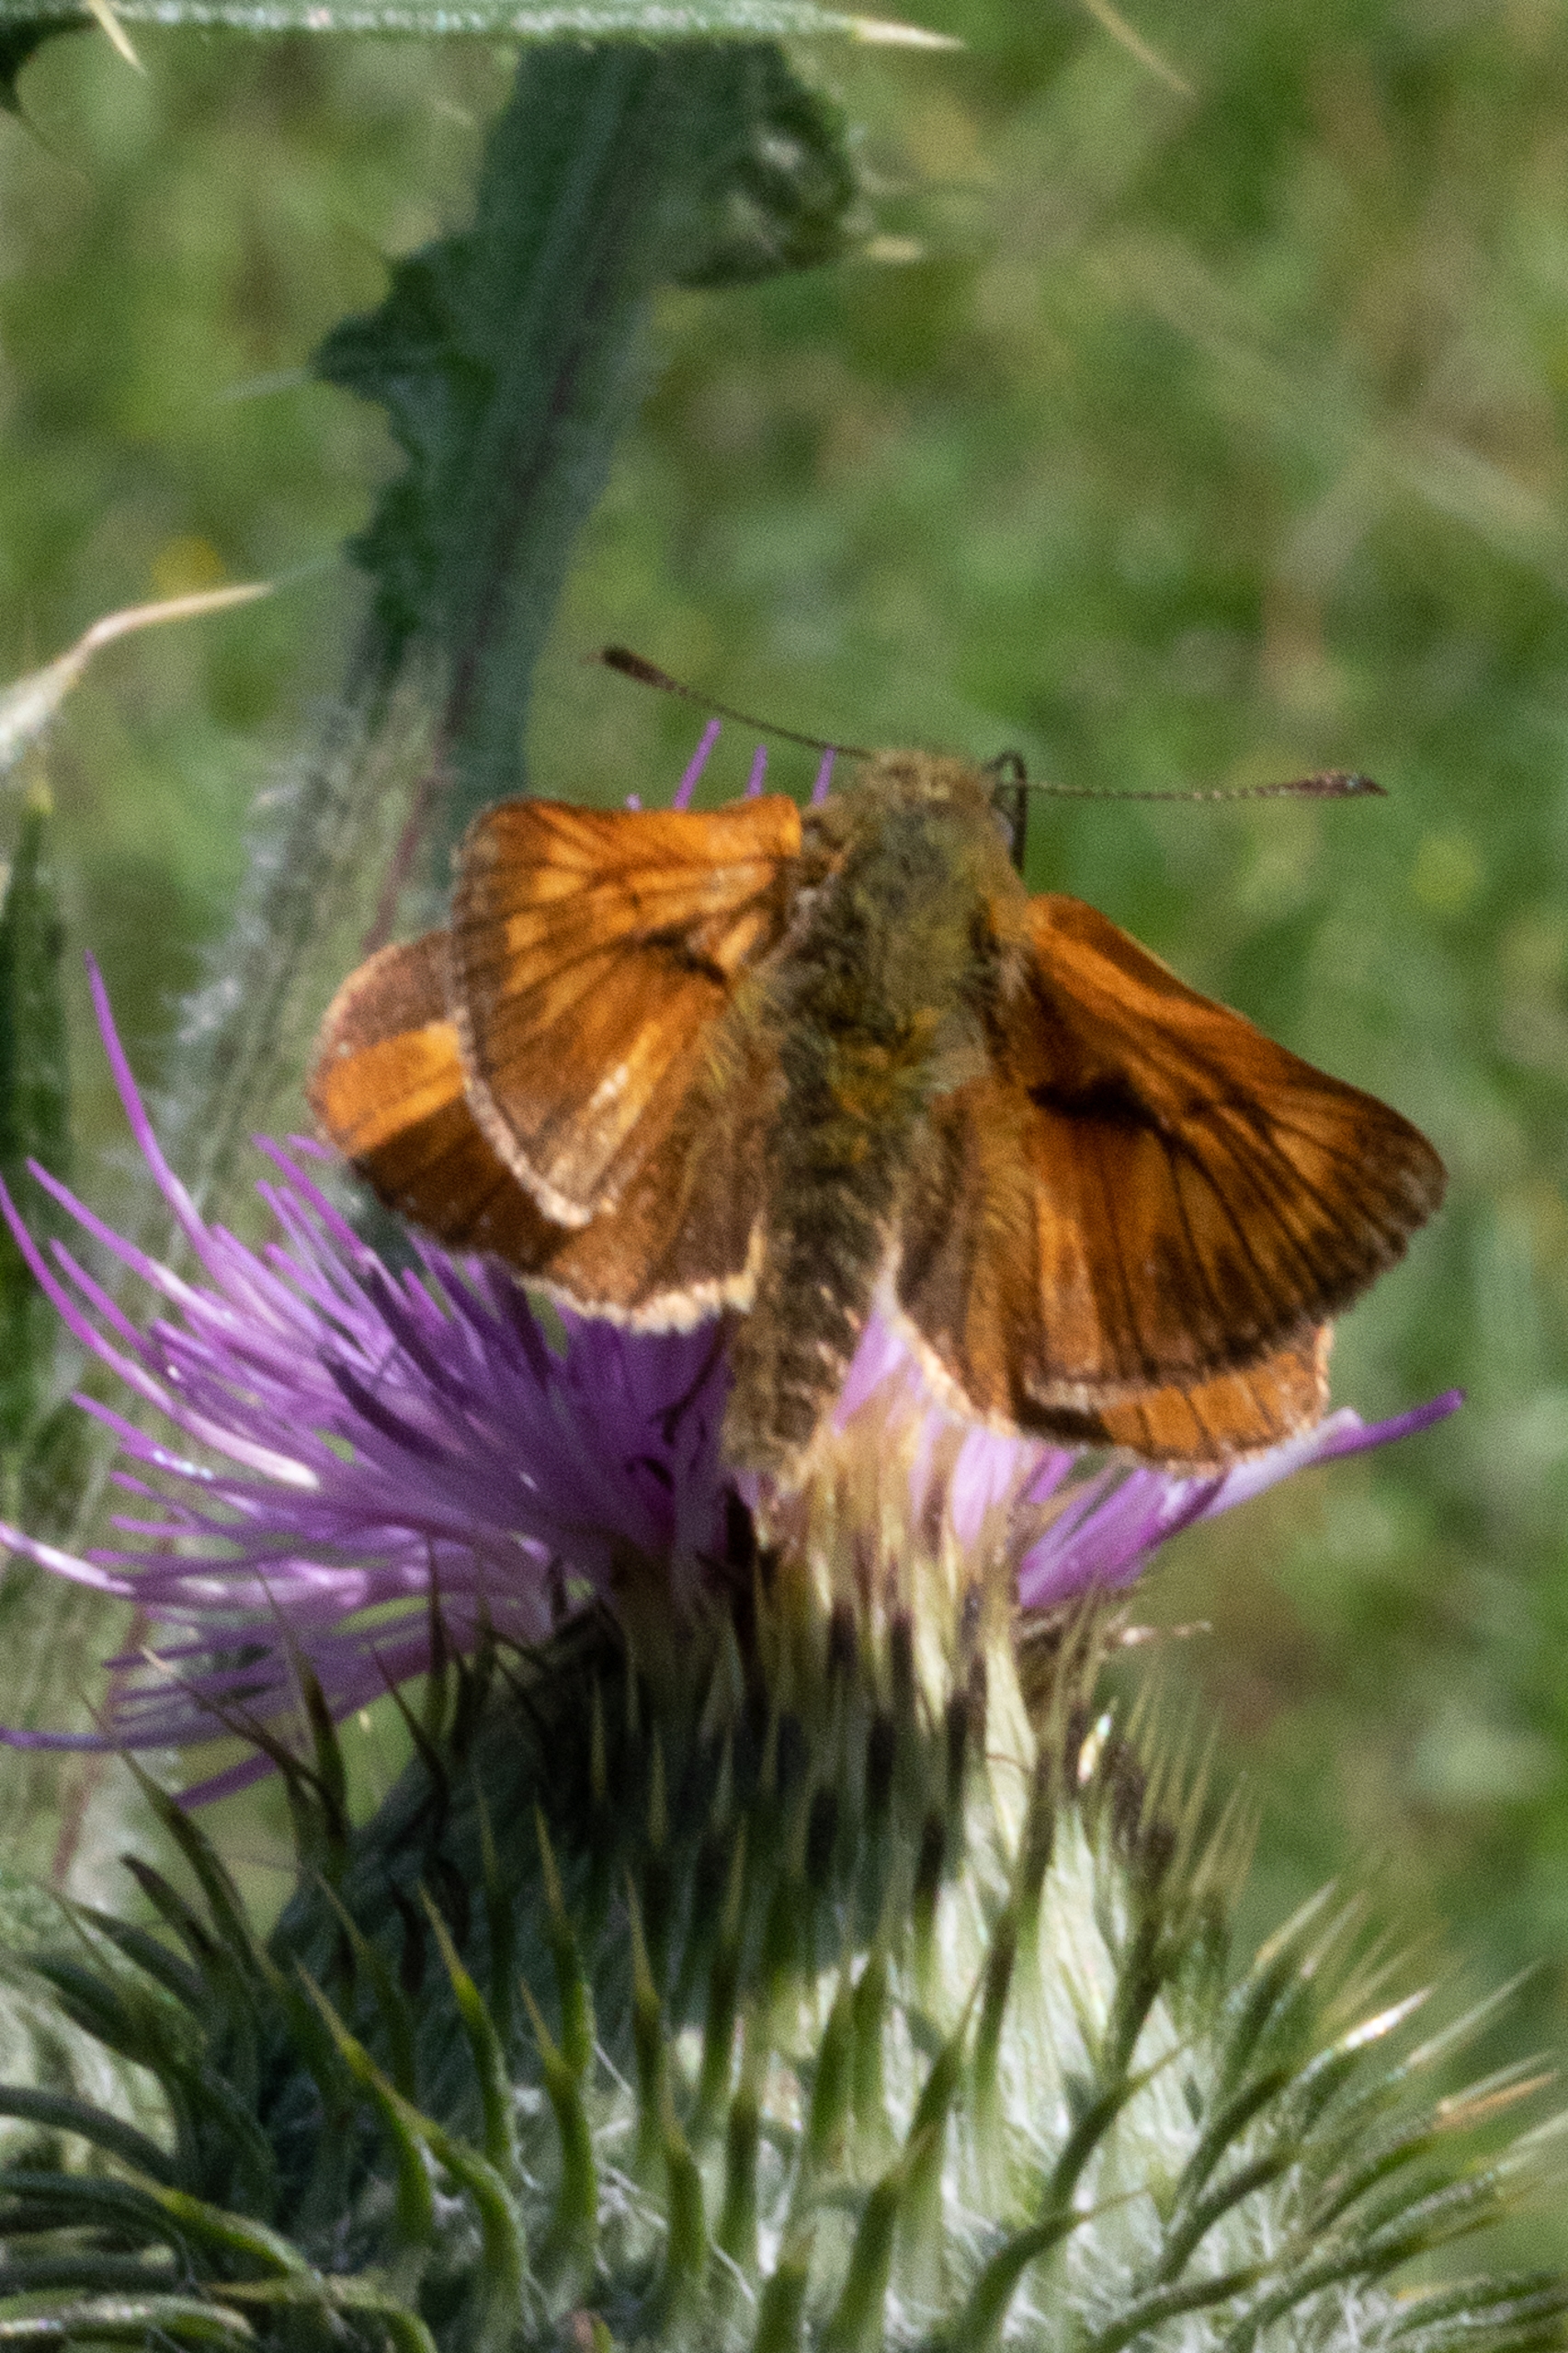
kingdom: Animalia
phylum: Arthropoda
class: Insecta
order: Lepidoptera
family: Hesperiidae
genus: Ochlodes
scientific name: Ochlodes venata
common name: Stor bredpande
